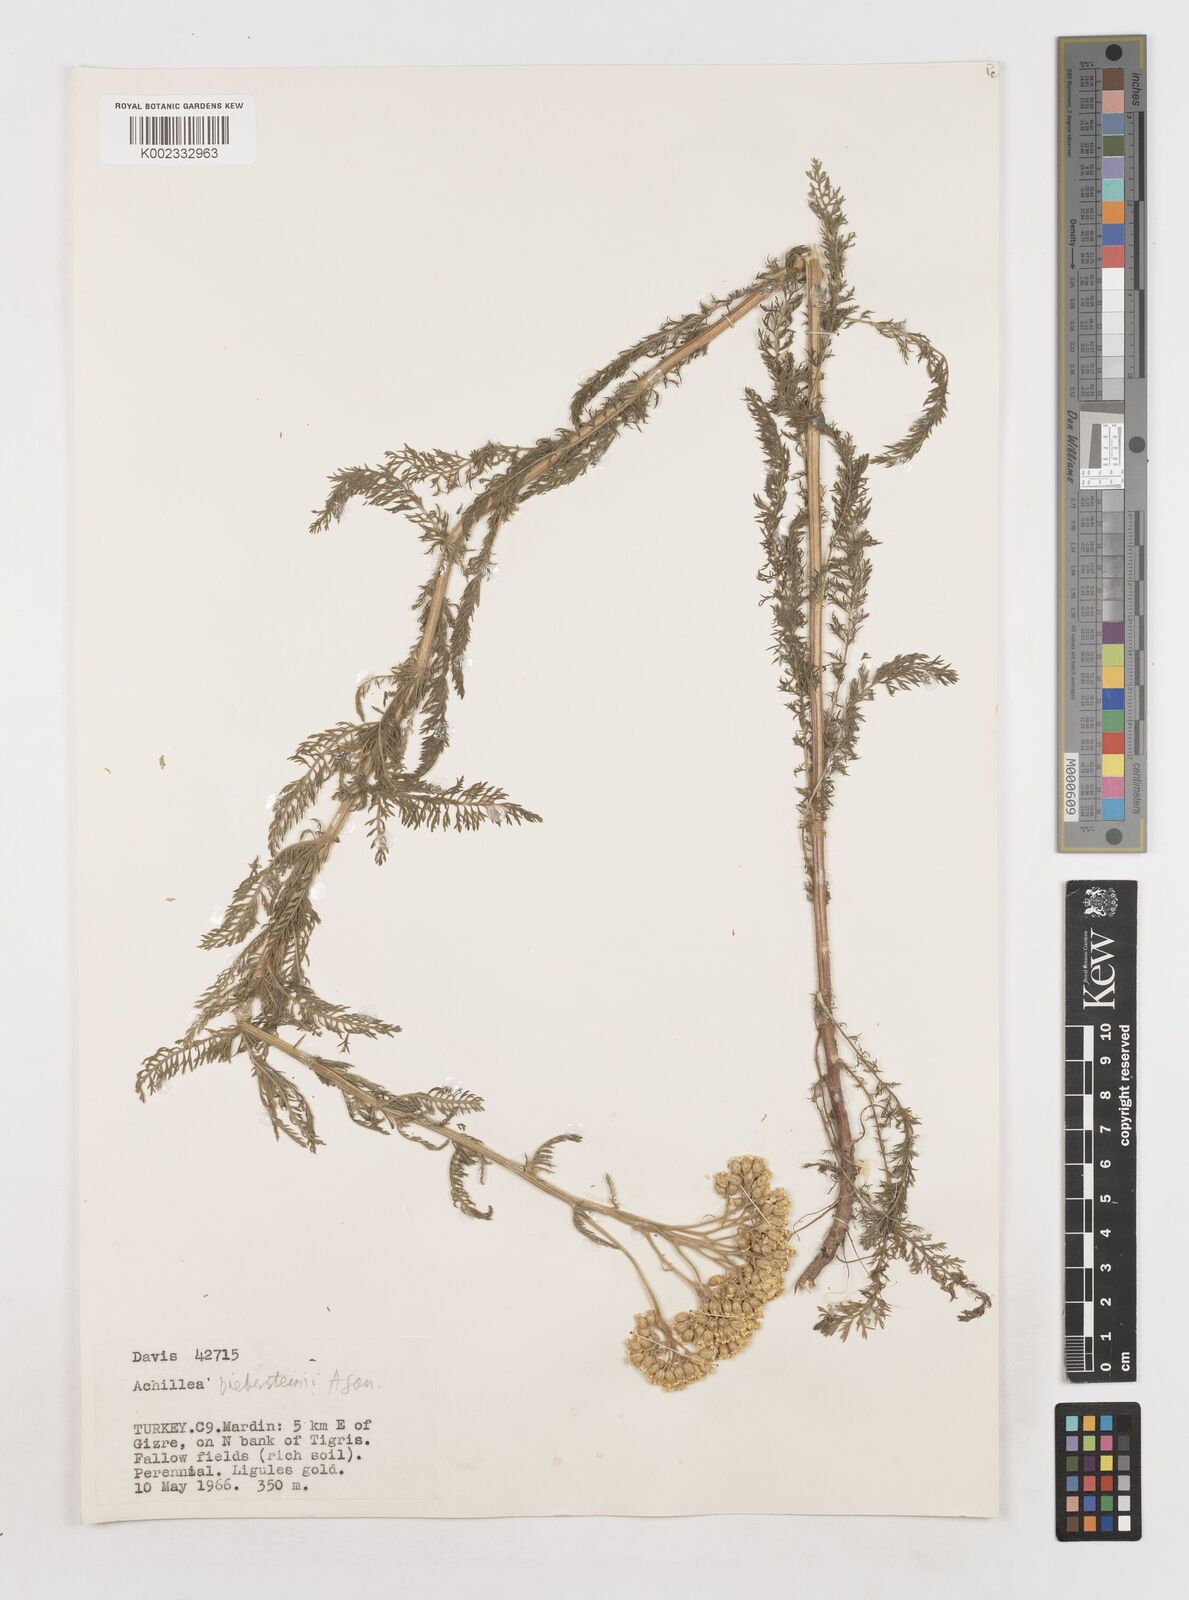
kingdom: Plantae
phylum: Tracheophyta
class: Magnoliopsida
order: Asterales
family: Asteraceae
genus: Achillea
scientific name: Achillea arabica
